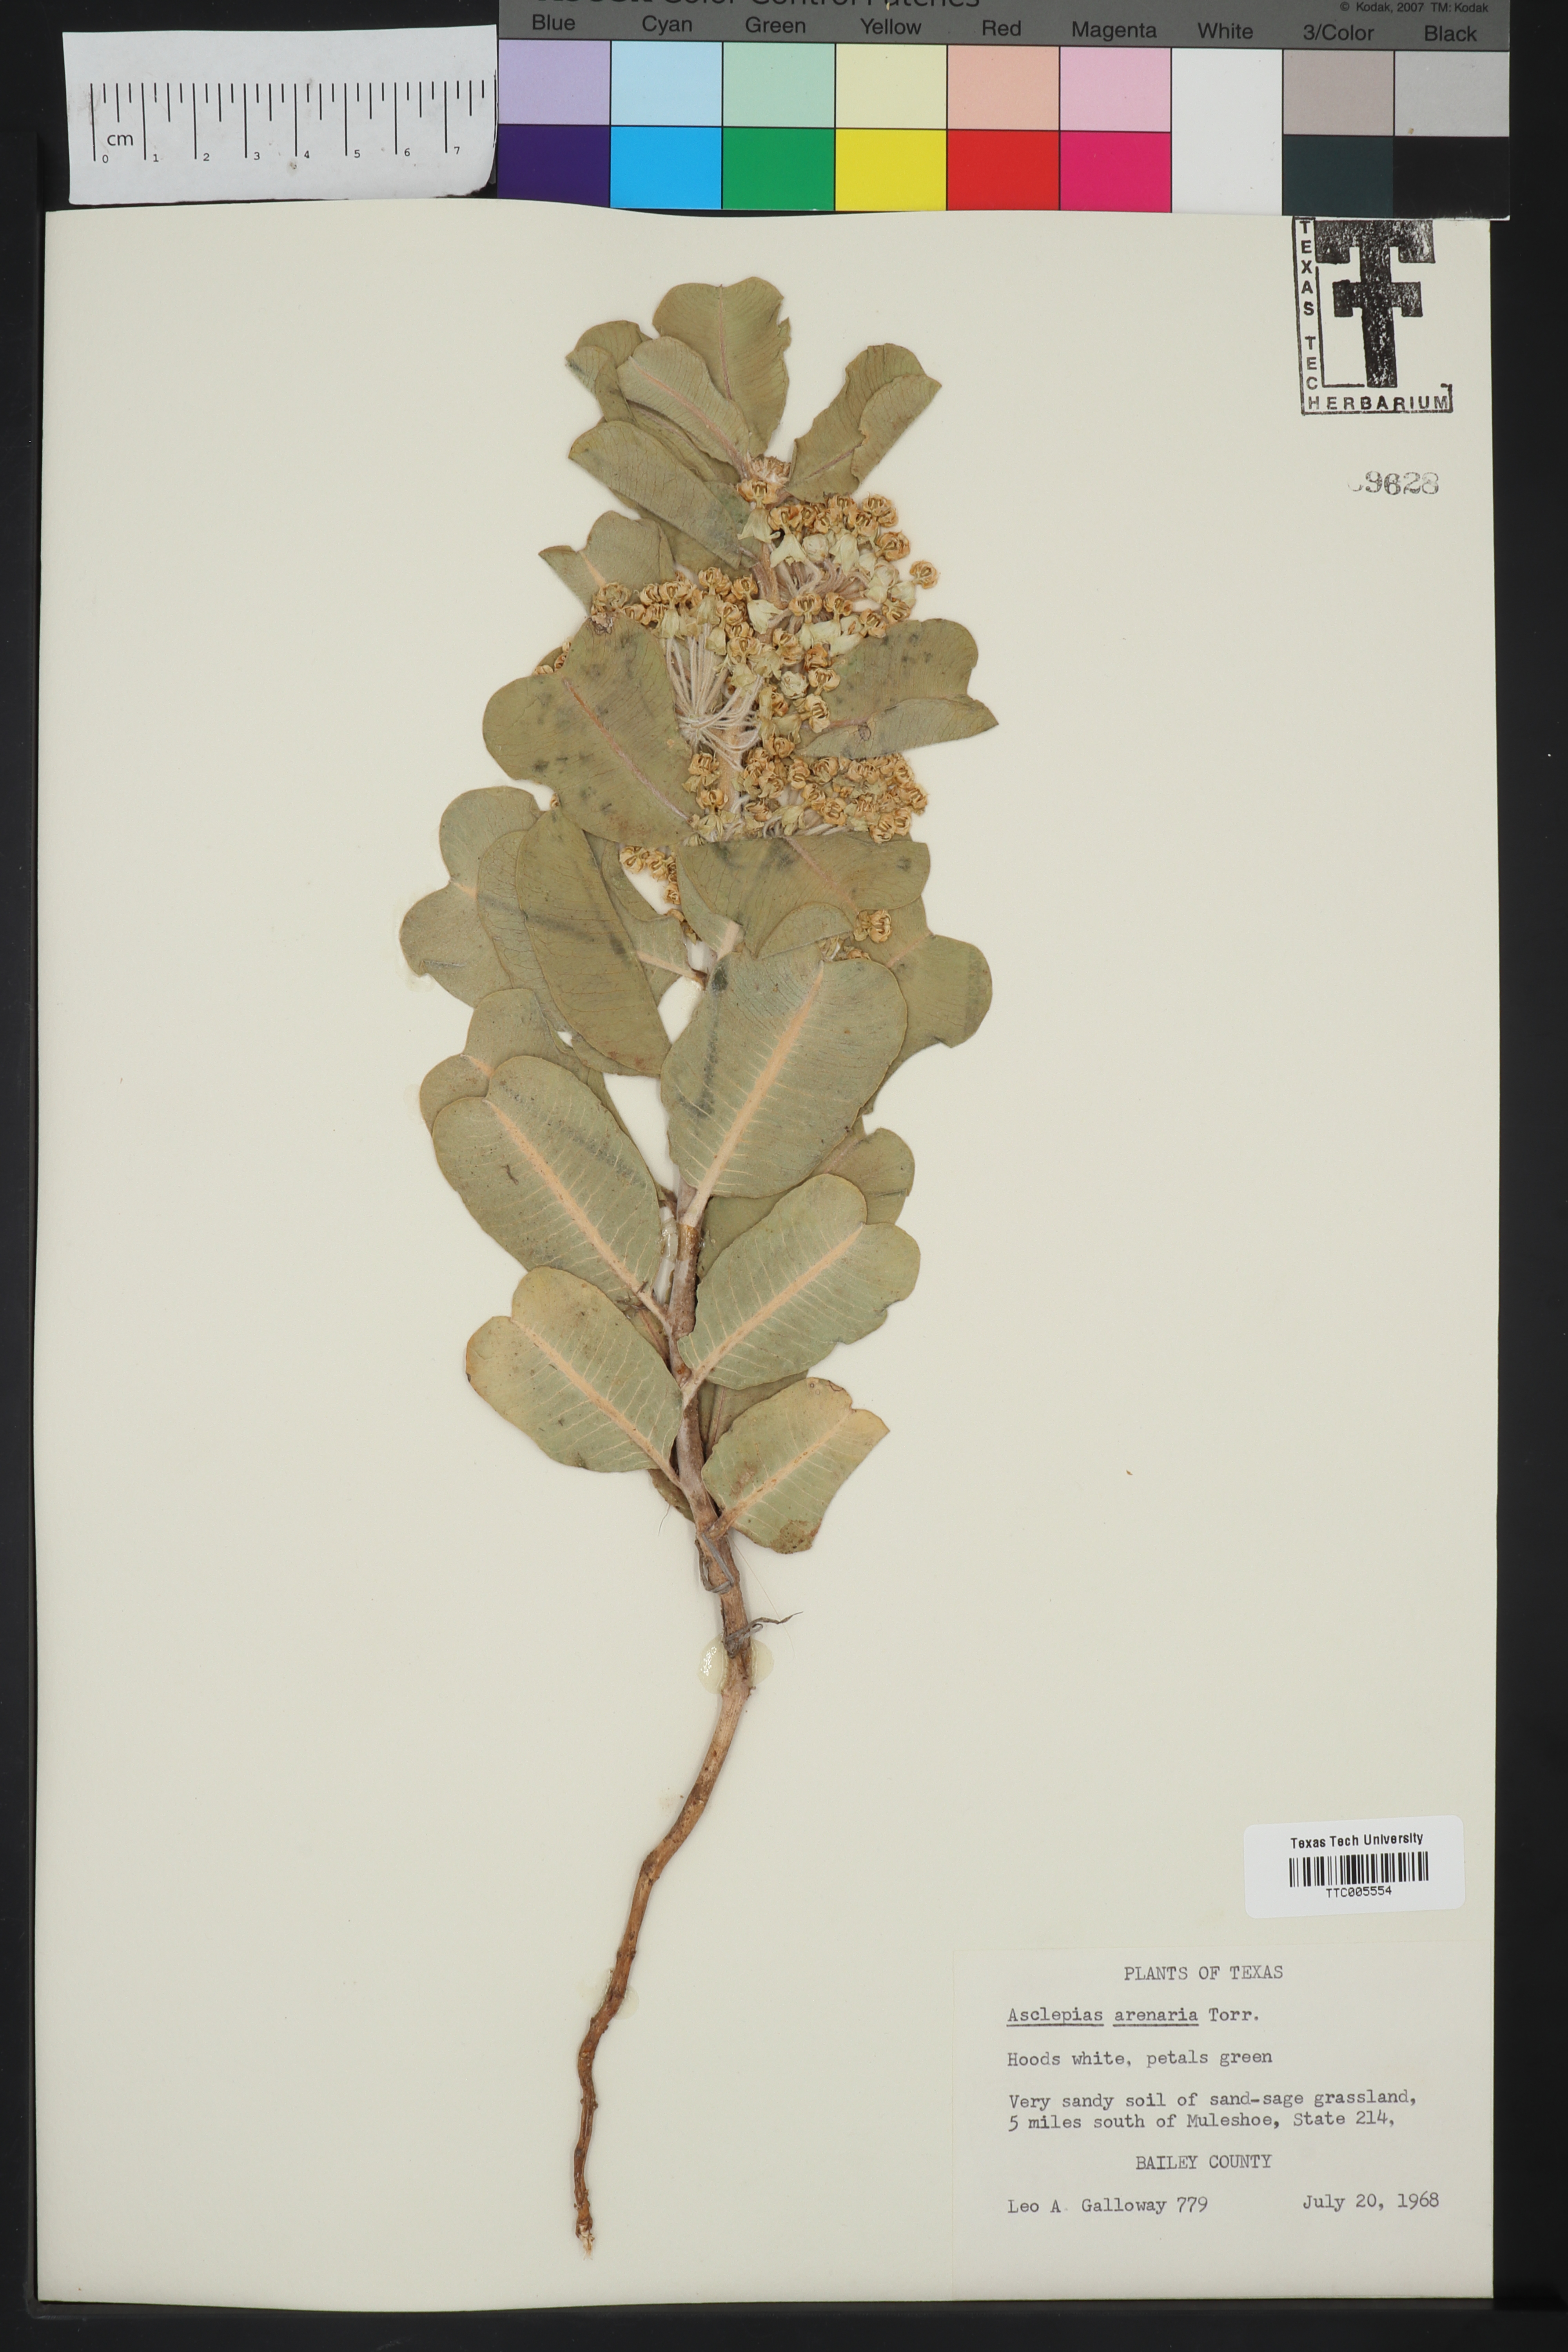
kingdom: Plantae
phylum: Tracheophyta
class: Magnoliopsida
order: Gentianales
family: Apocynaceae
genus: Asclepias
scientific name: Asclepias arenaria
